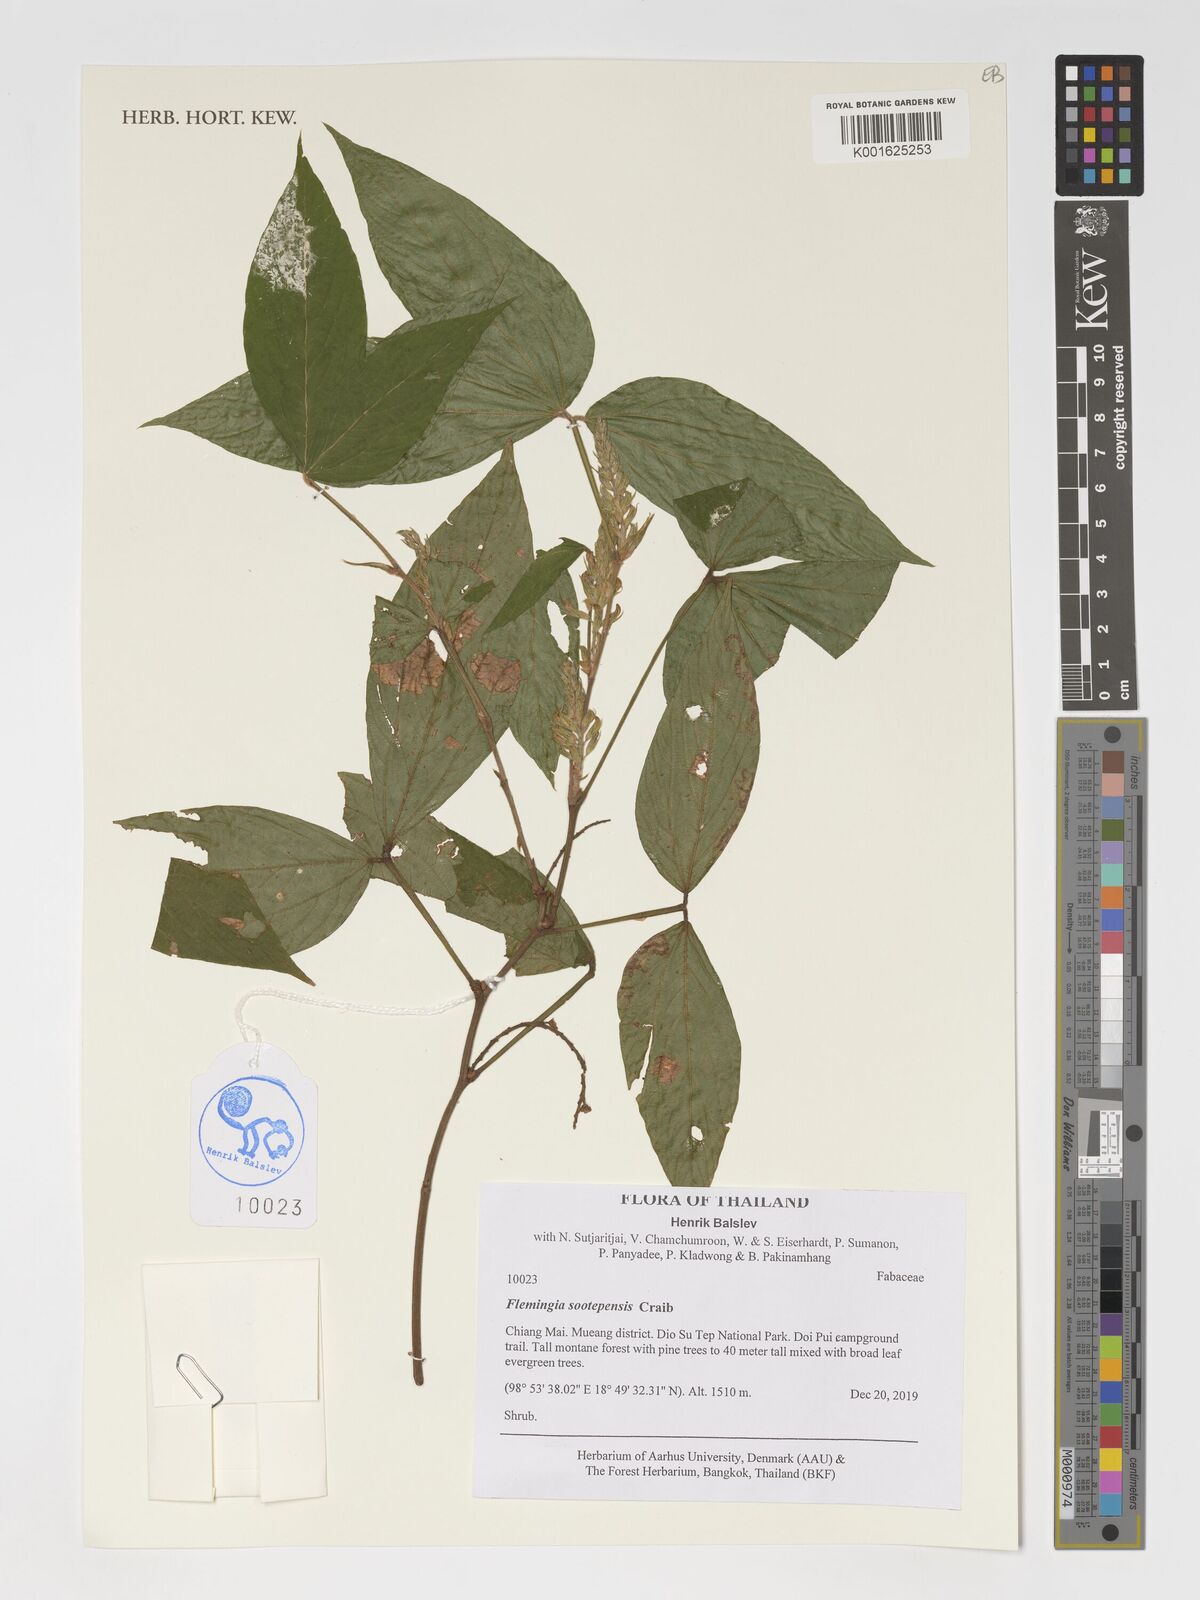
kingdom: Plantae
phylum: Tracheophyta
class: Magnoliopsida
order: Fabales
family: Fabaceae
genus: Flemingia
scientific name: Flemingia sootepensis
